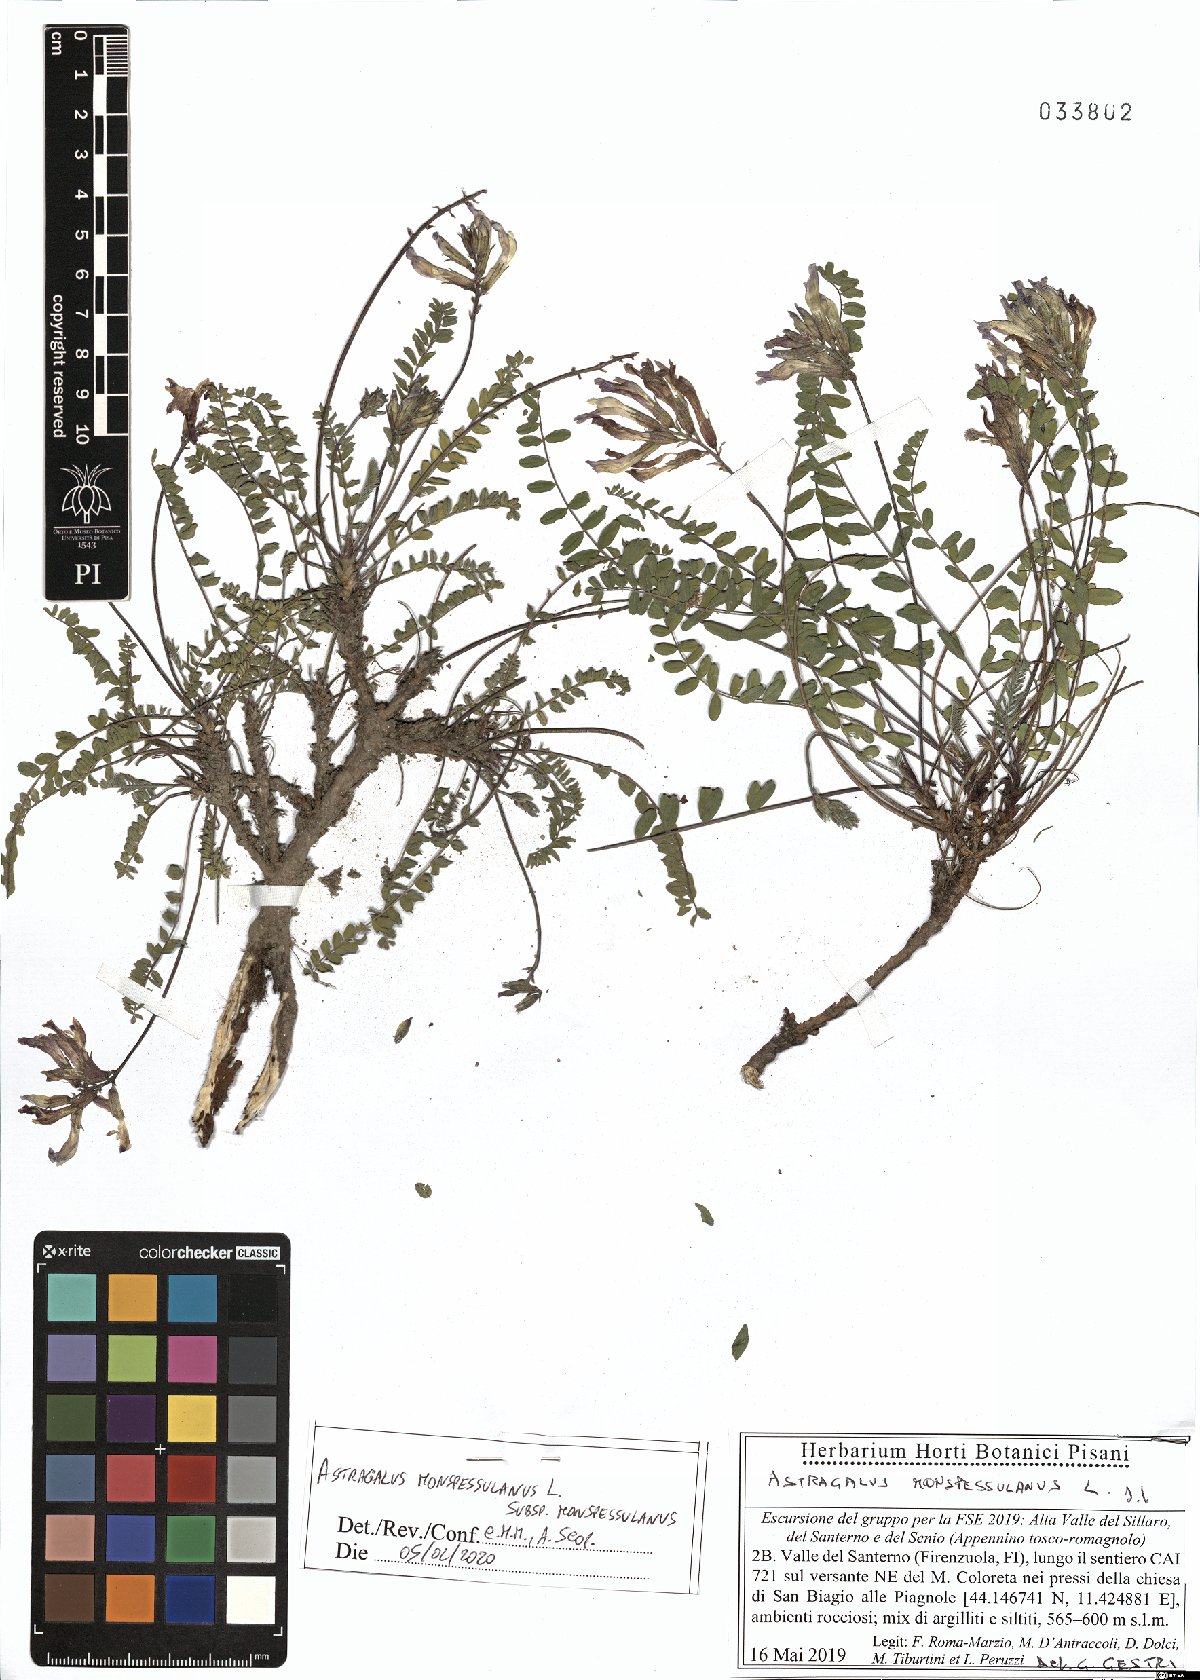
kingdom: Plantae
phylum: Tracheophyta
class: Magnoliopsida
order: Fabales
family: Fabaceae
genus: Astragalus
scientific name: Astragalus monspessulanus
